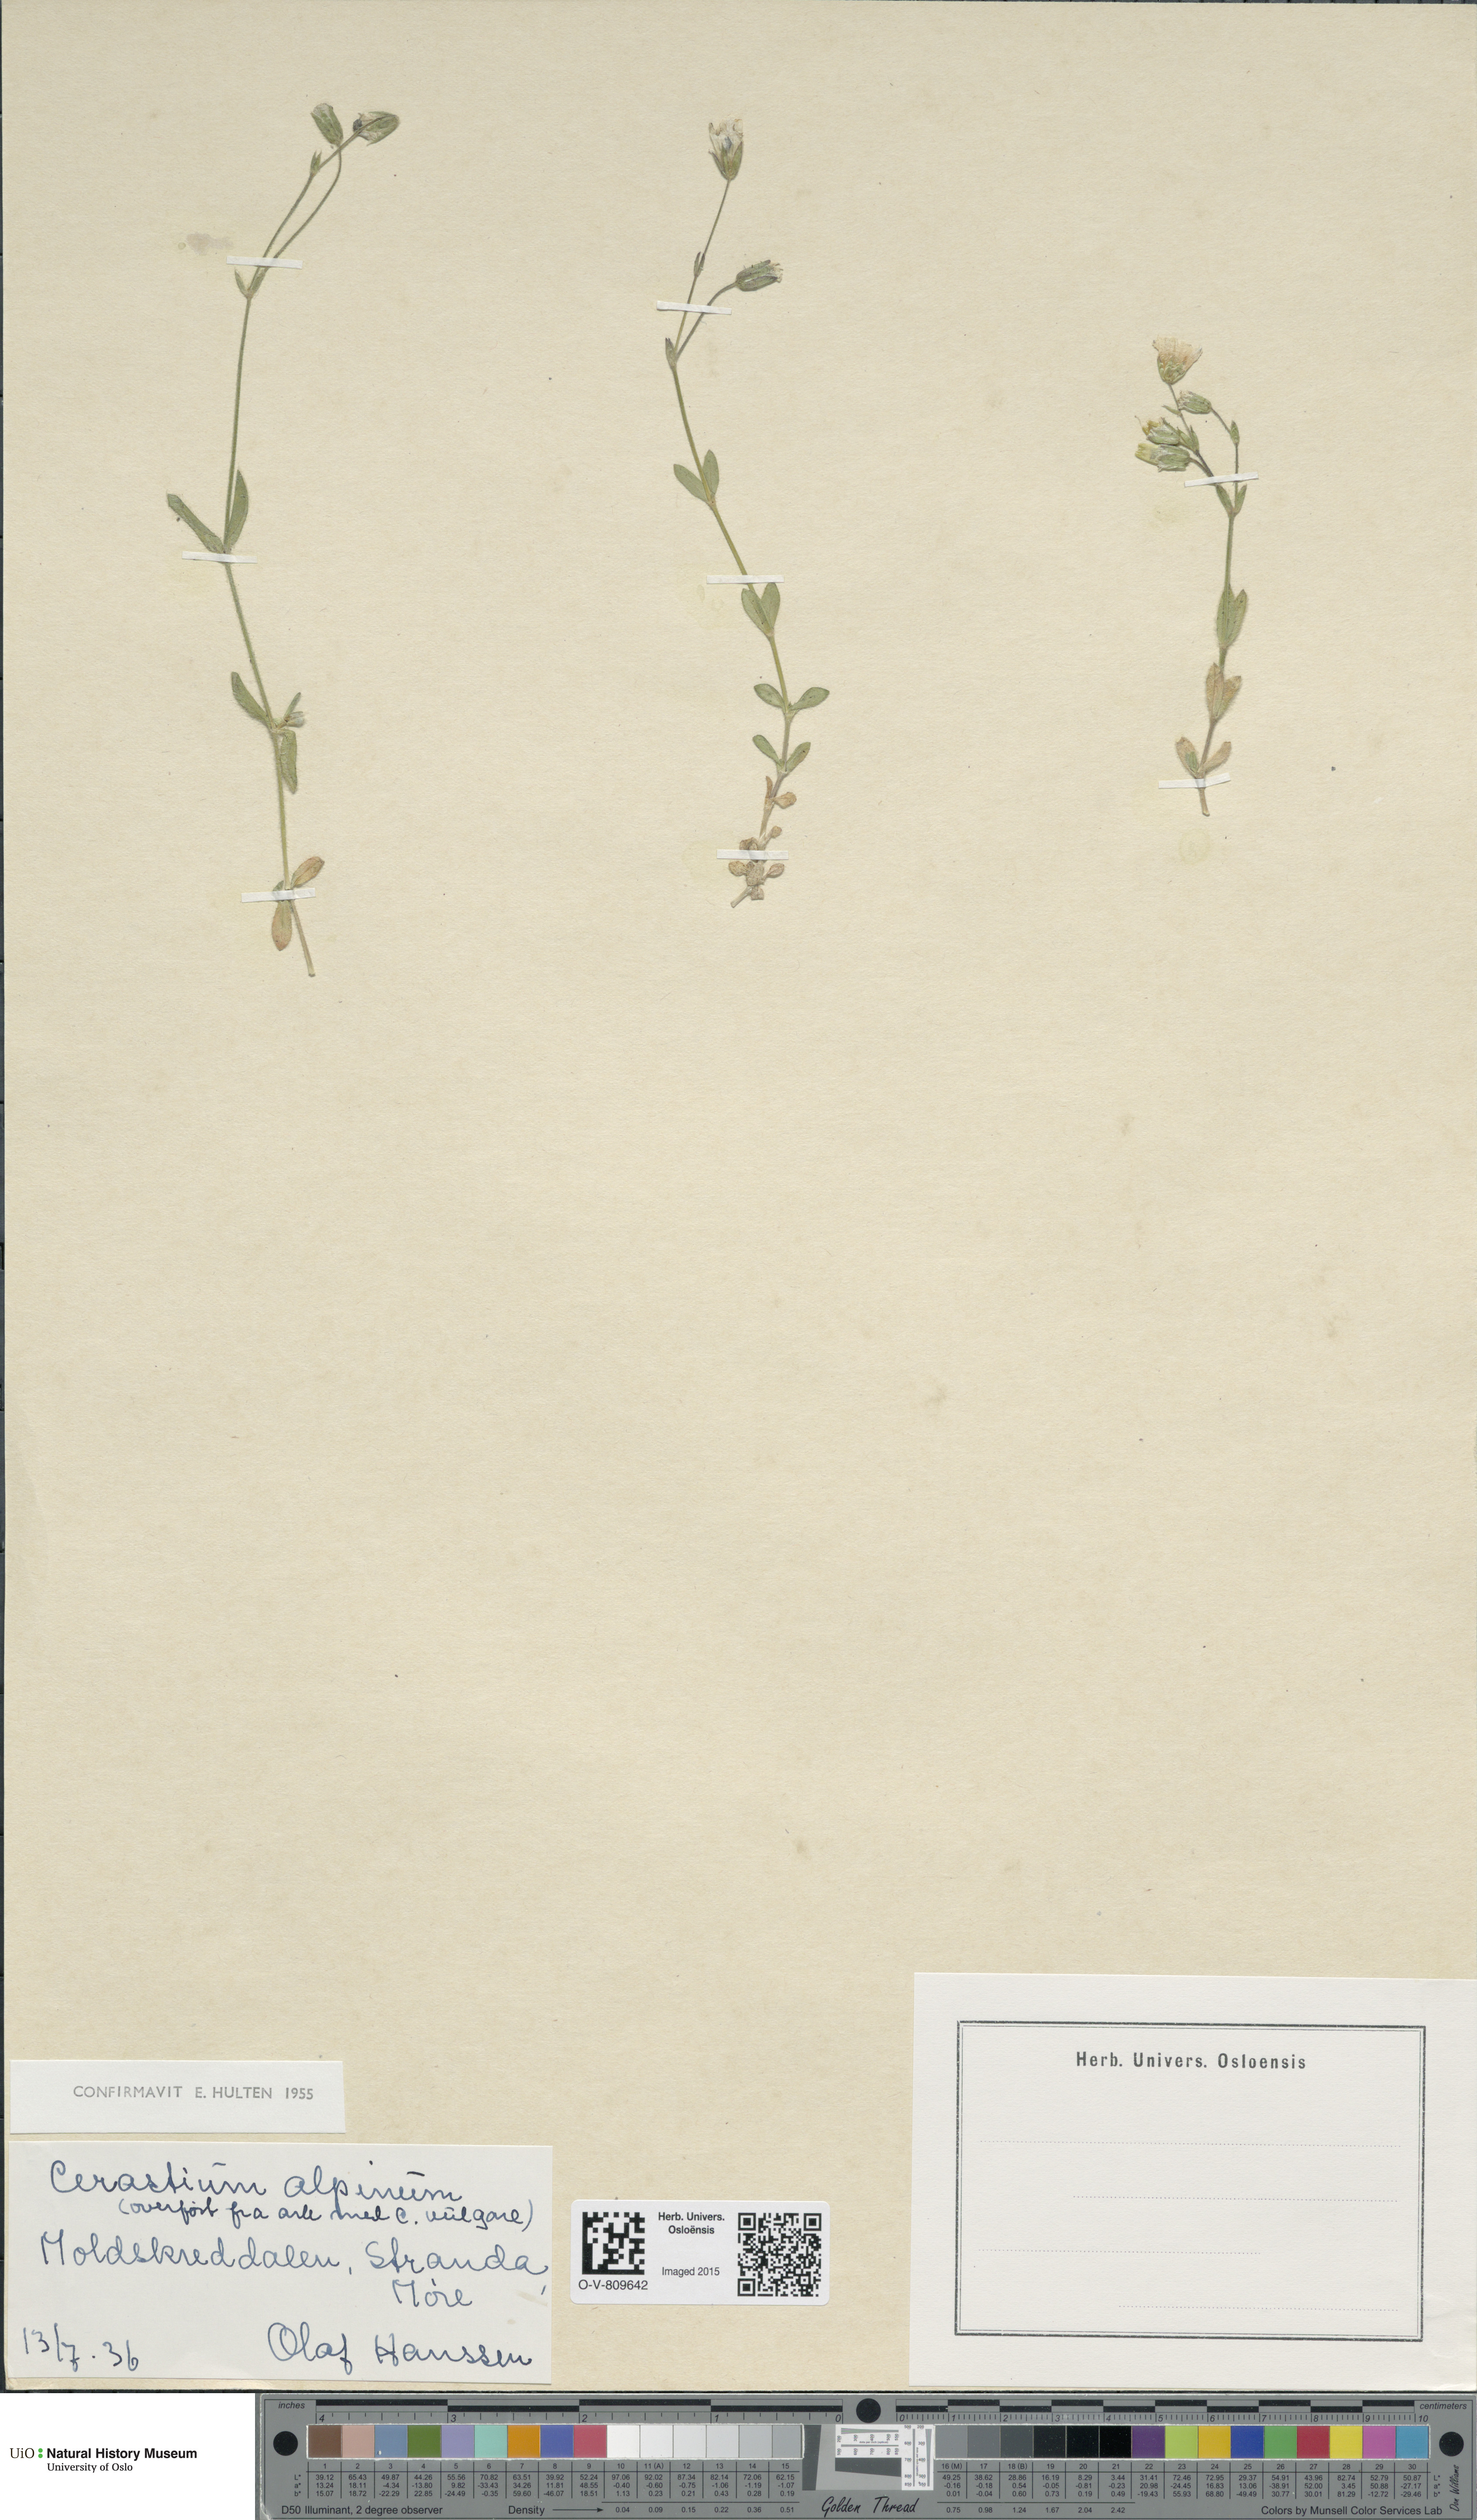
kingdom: Plantae
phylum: Tracheophyta
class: Magnoliopsida
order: Caryophyllales
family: Caryophyllaceae
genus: Cerastium
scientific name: Cerastium alpinum
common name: Alpine mouse-ear
